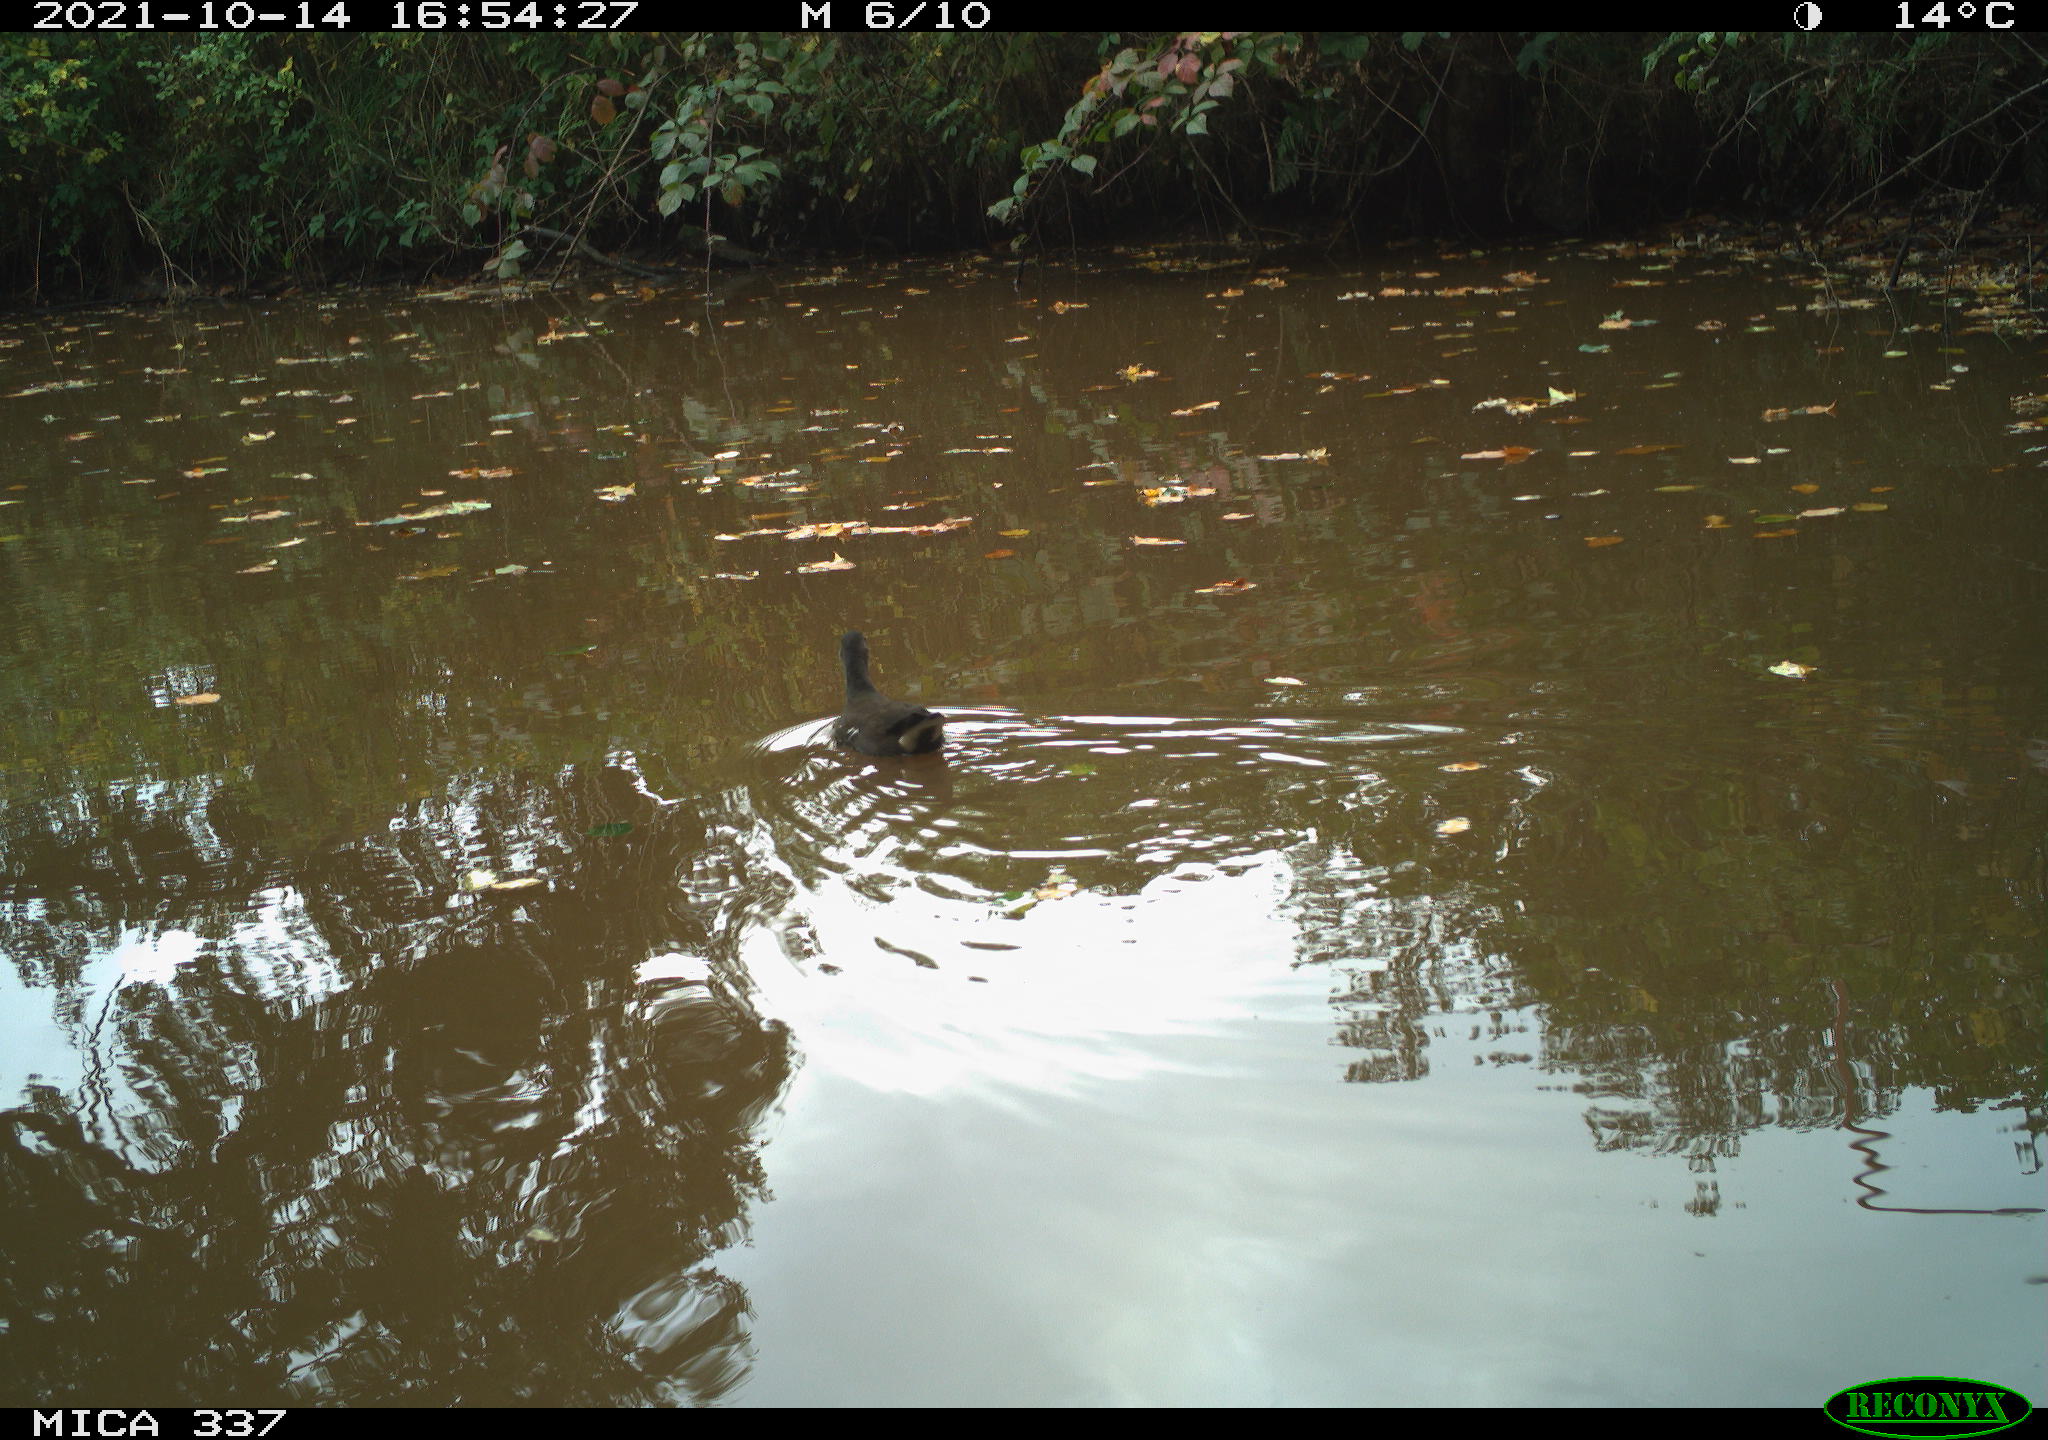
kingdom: Animalia
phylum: Chordata
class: Aves
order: Gruiformes
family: Rallidae
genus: Gallinula
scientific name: Gallinula chloropus
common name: Common moorhen
